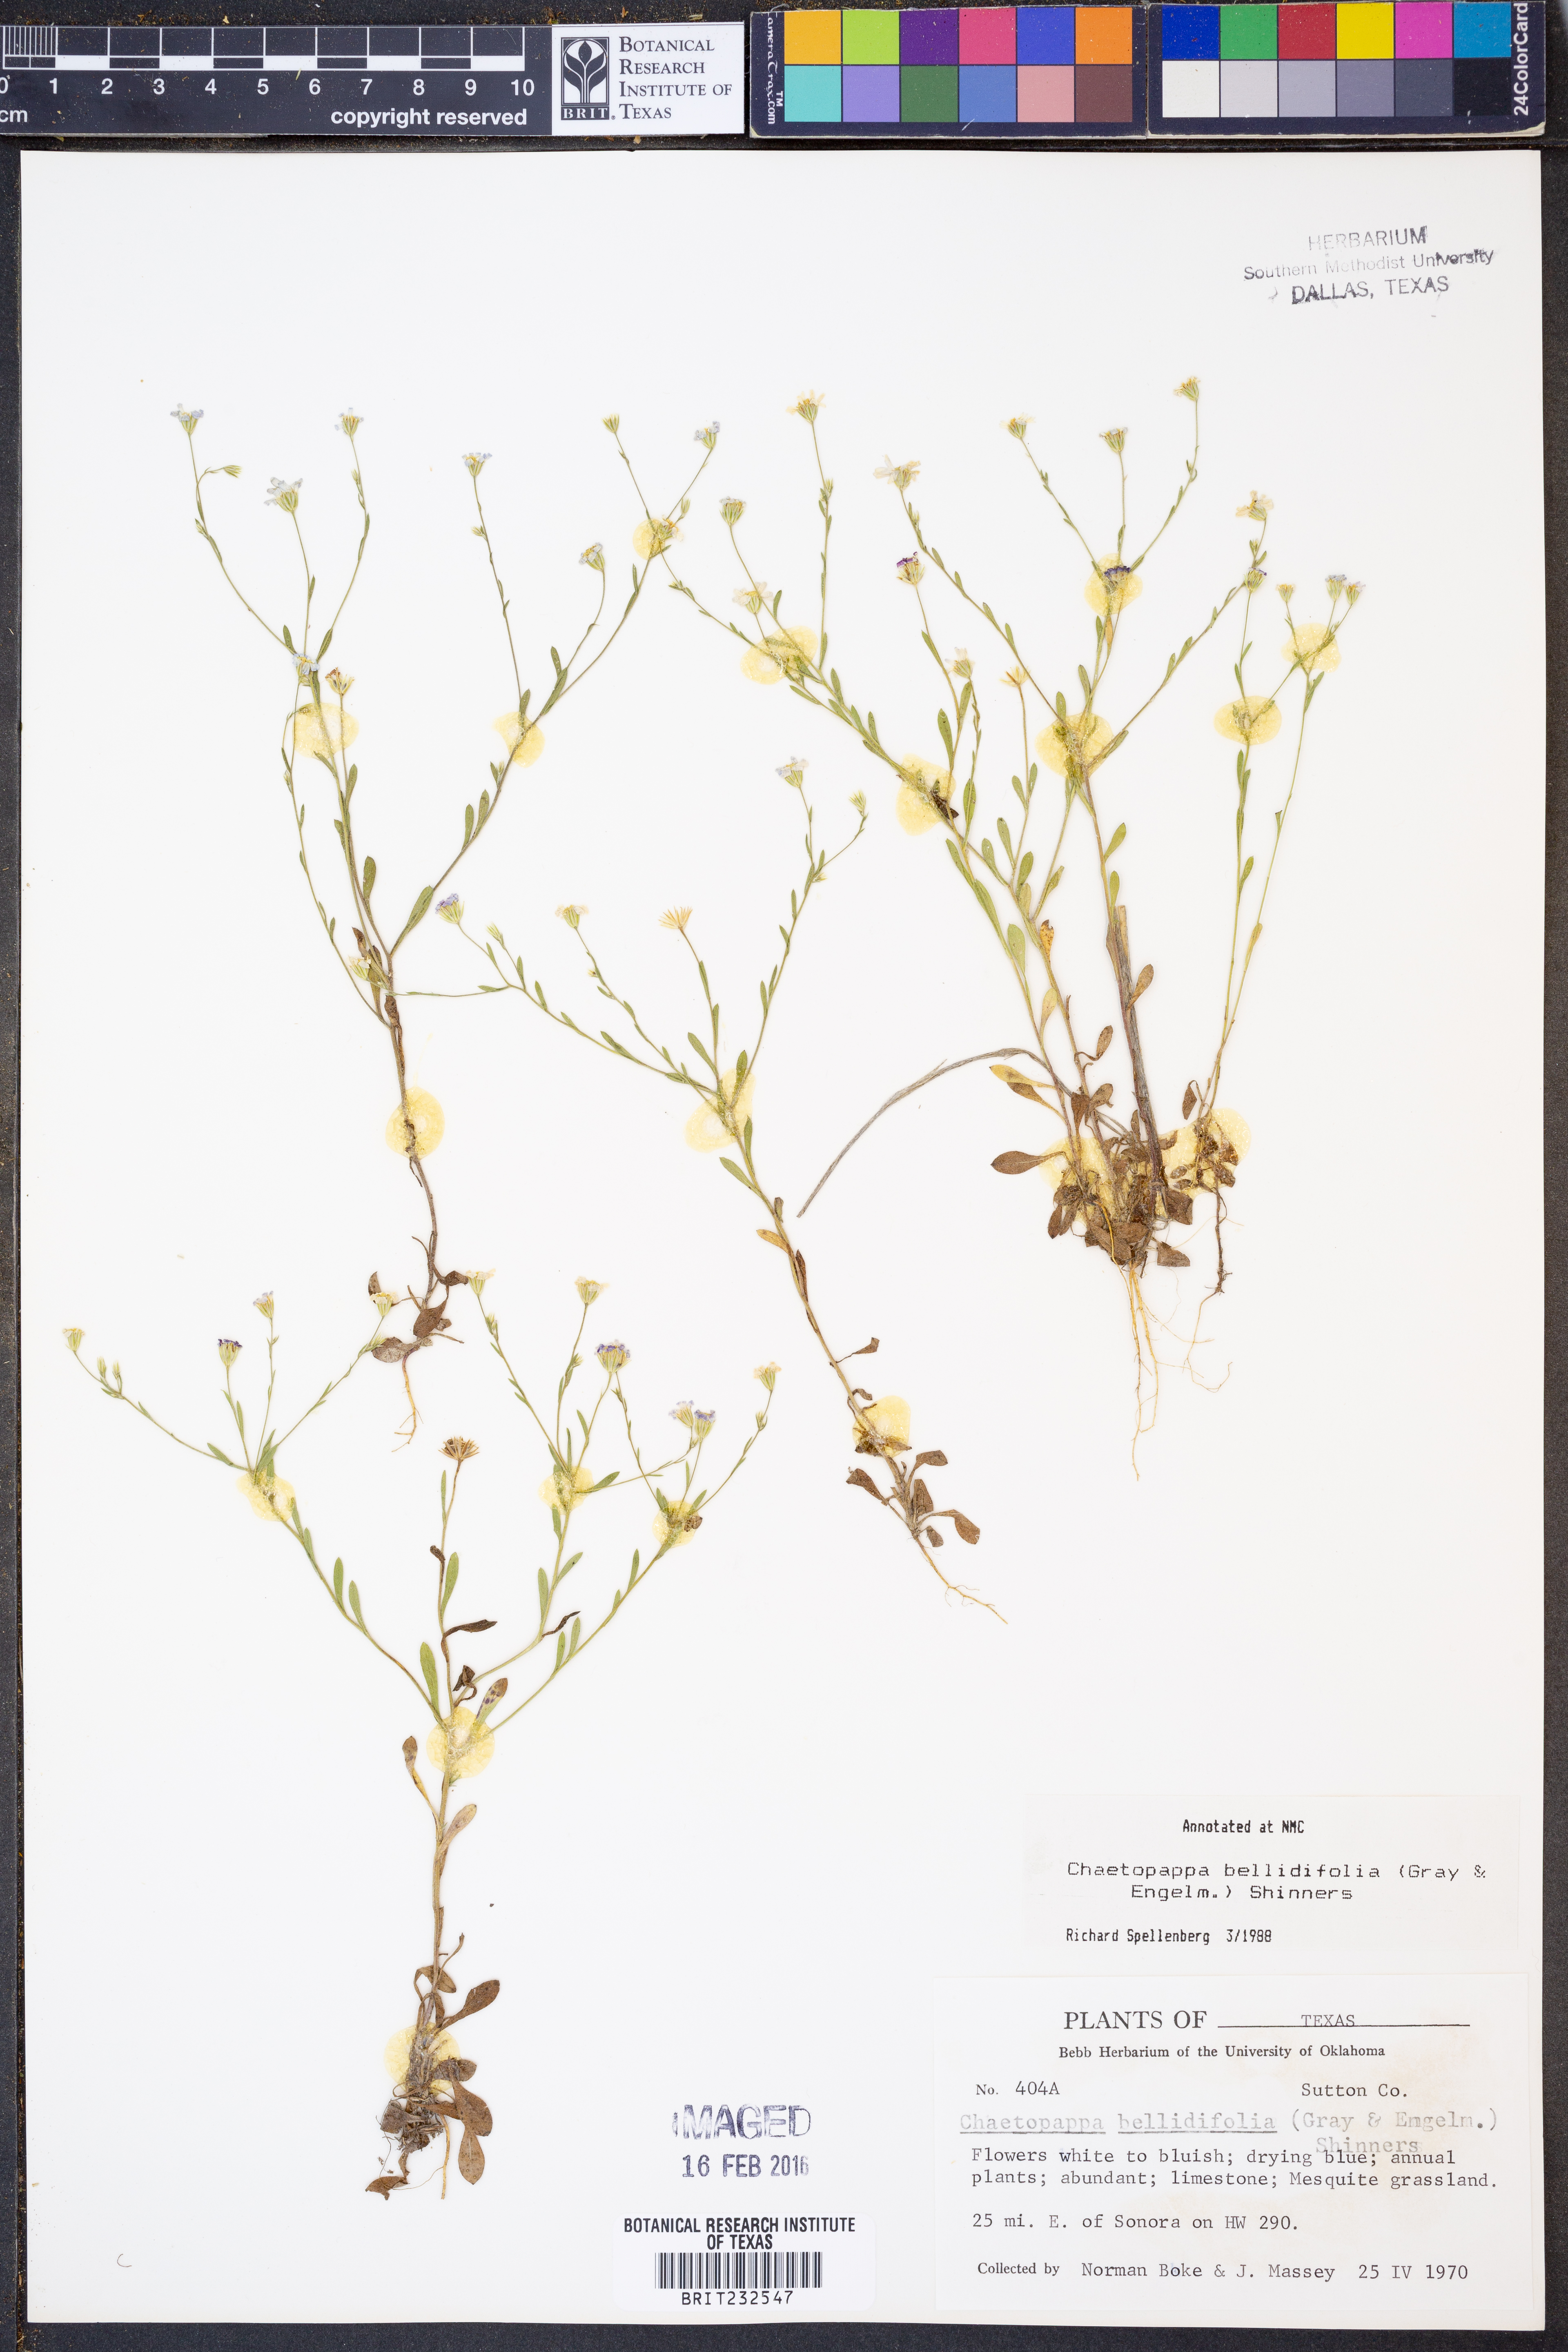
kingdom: Plantae
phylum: Tracheophyta
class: Magnoliopsida
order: Asterales
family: Asteraceae
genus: Chaetopappa
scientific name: Chaetopappa bellidifolia
